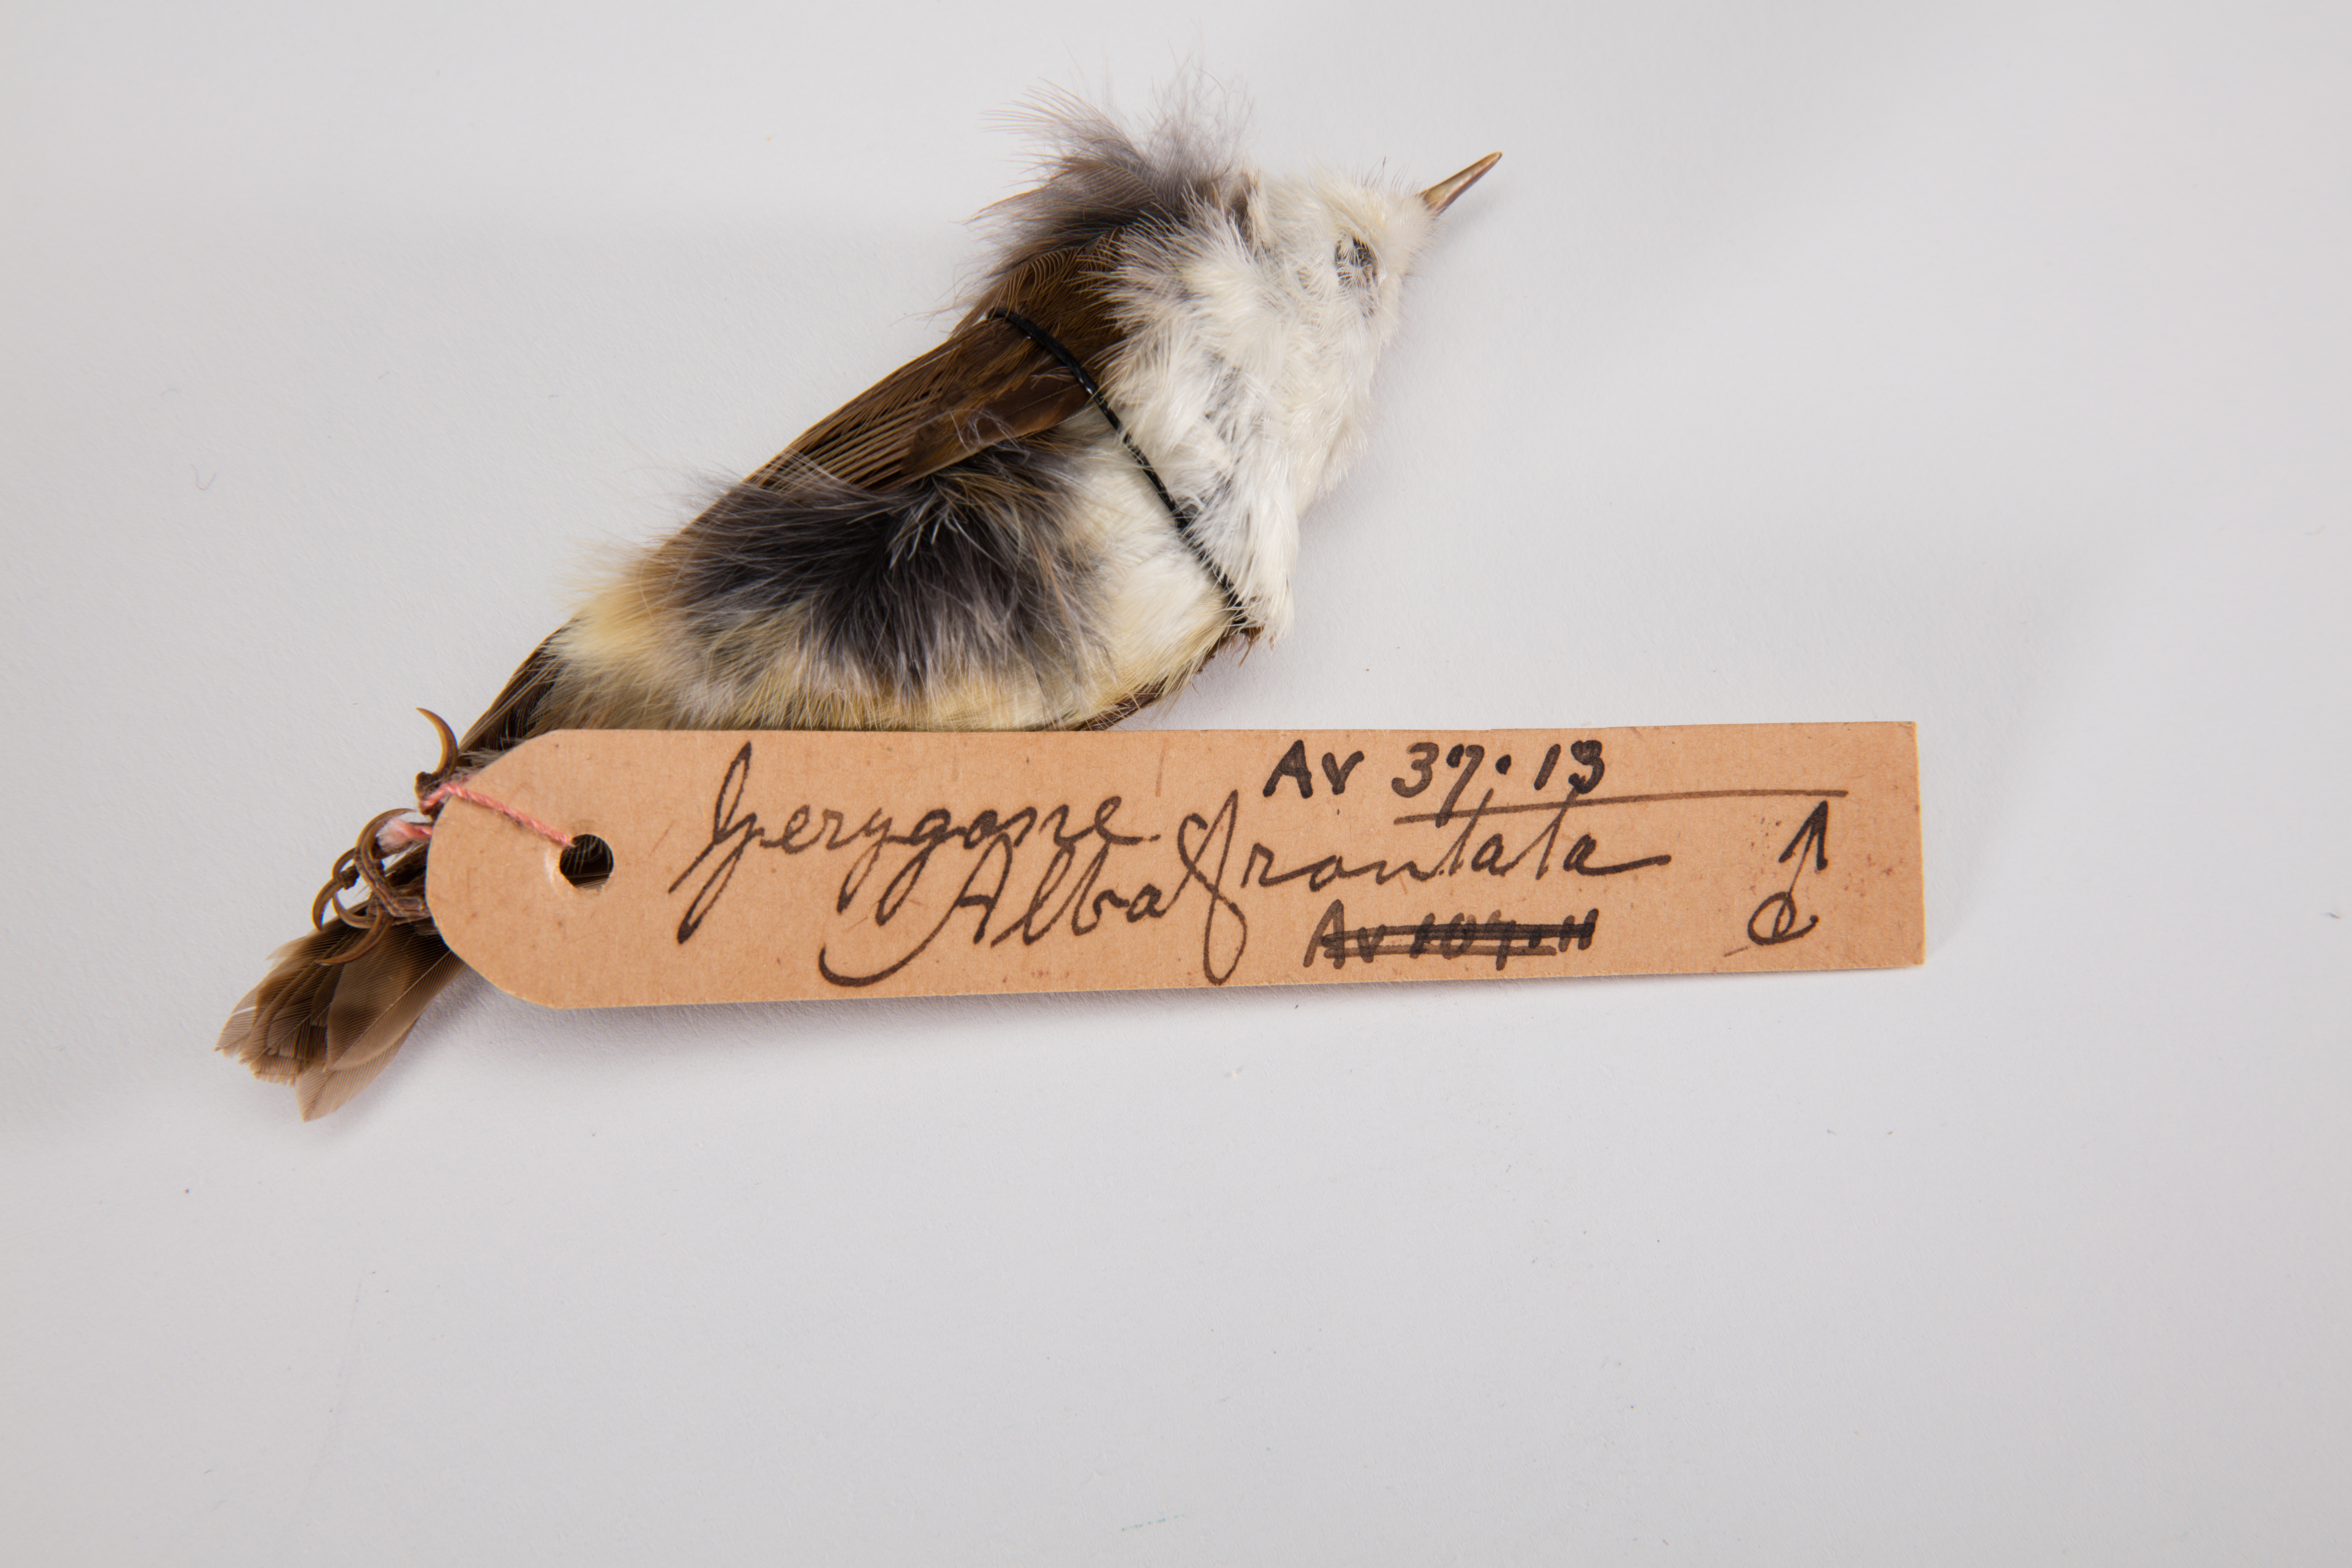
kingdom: Animalia
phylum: Chordata
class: Aves
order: Passeriformes
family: Acanthizidae
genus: Gerygone
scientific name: Gerygone albofrontata
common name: Chatham gerygone
